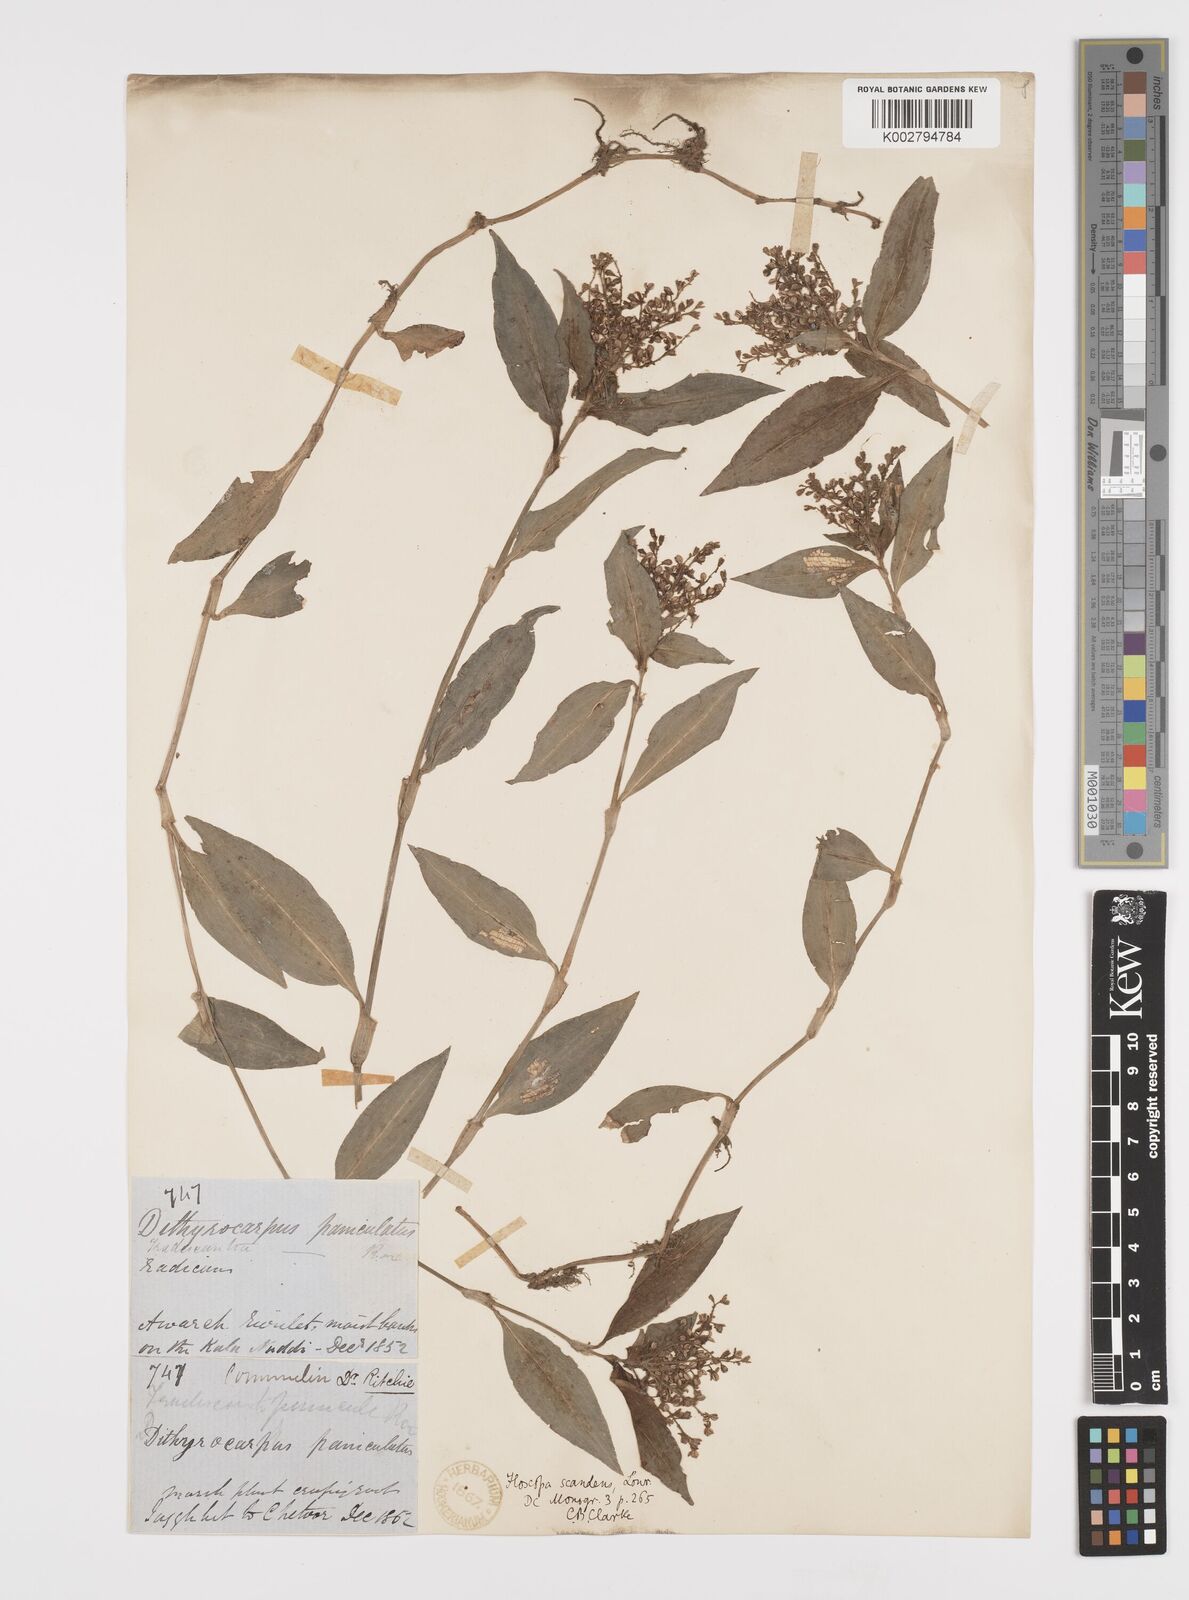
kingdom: Plantae
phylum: Tracheophyta
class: Liliopsida
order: Commelinales
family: Commelinaceae
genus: Floscopa
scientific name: Floscopa scandens
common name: Climbing flower cup
